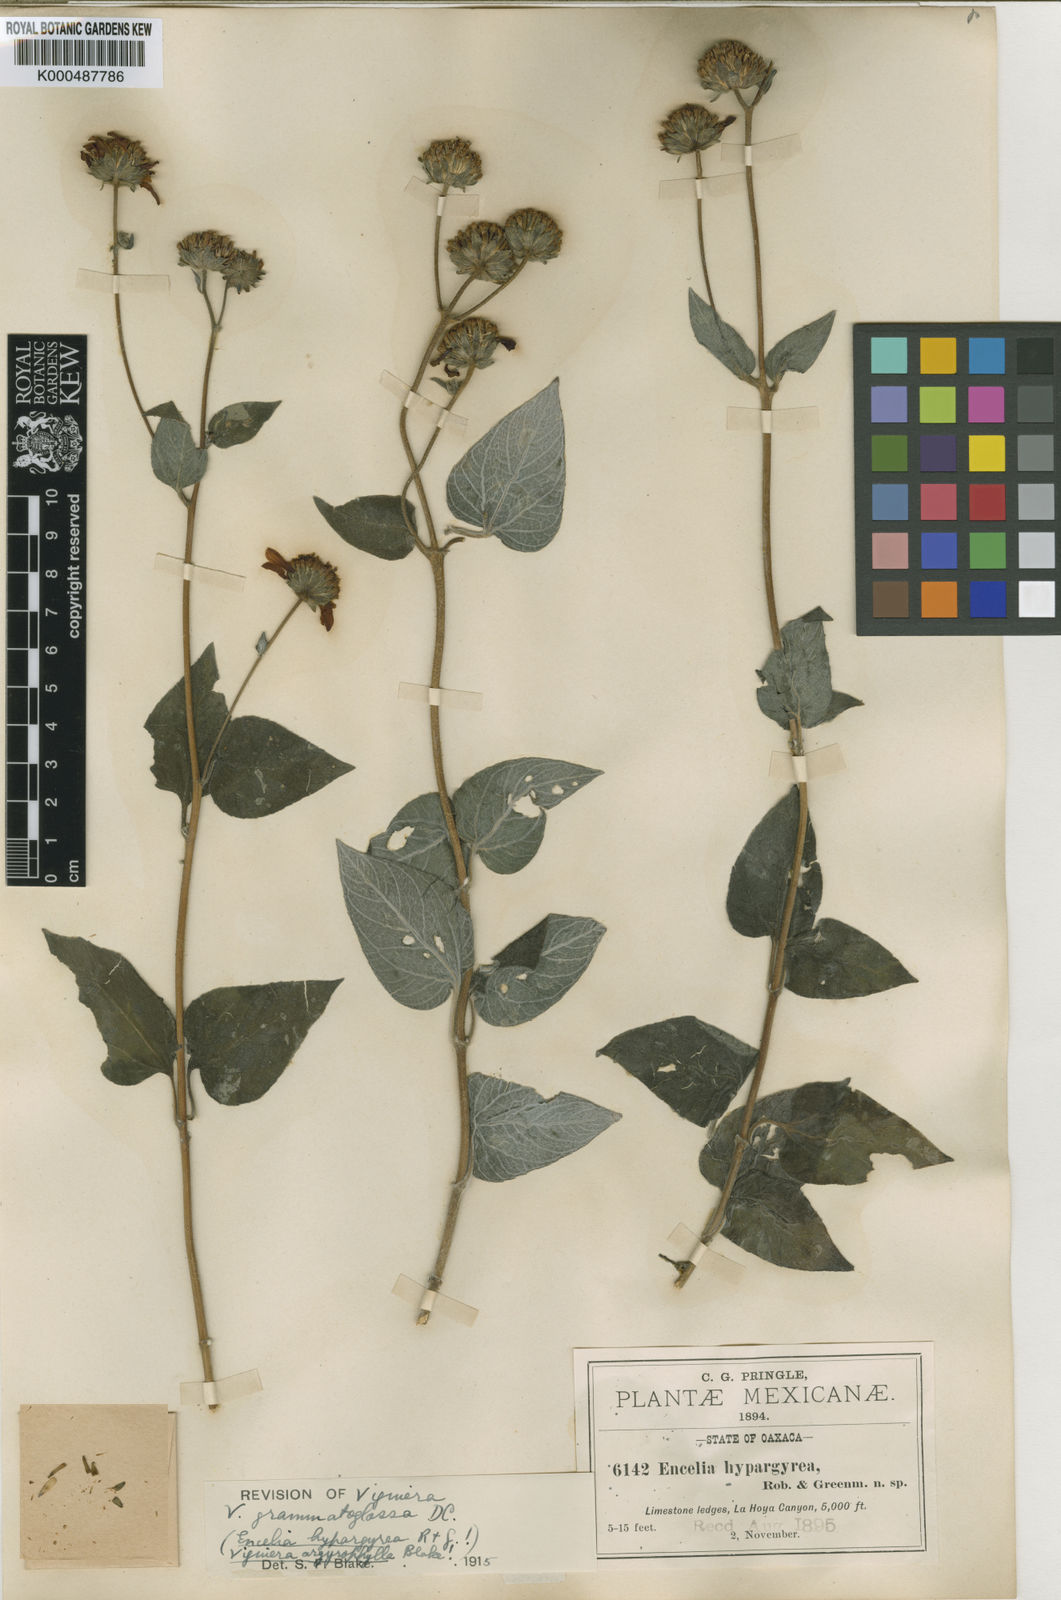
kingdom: Plantae
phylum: Tracheophyta
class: Magnoliopsida
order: Asterales
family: Asteraceae
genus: Viguiera
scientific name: Viguiera grammatoglossa
